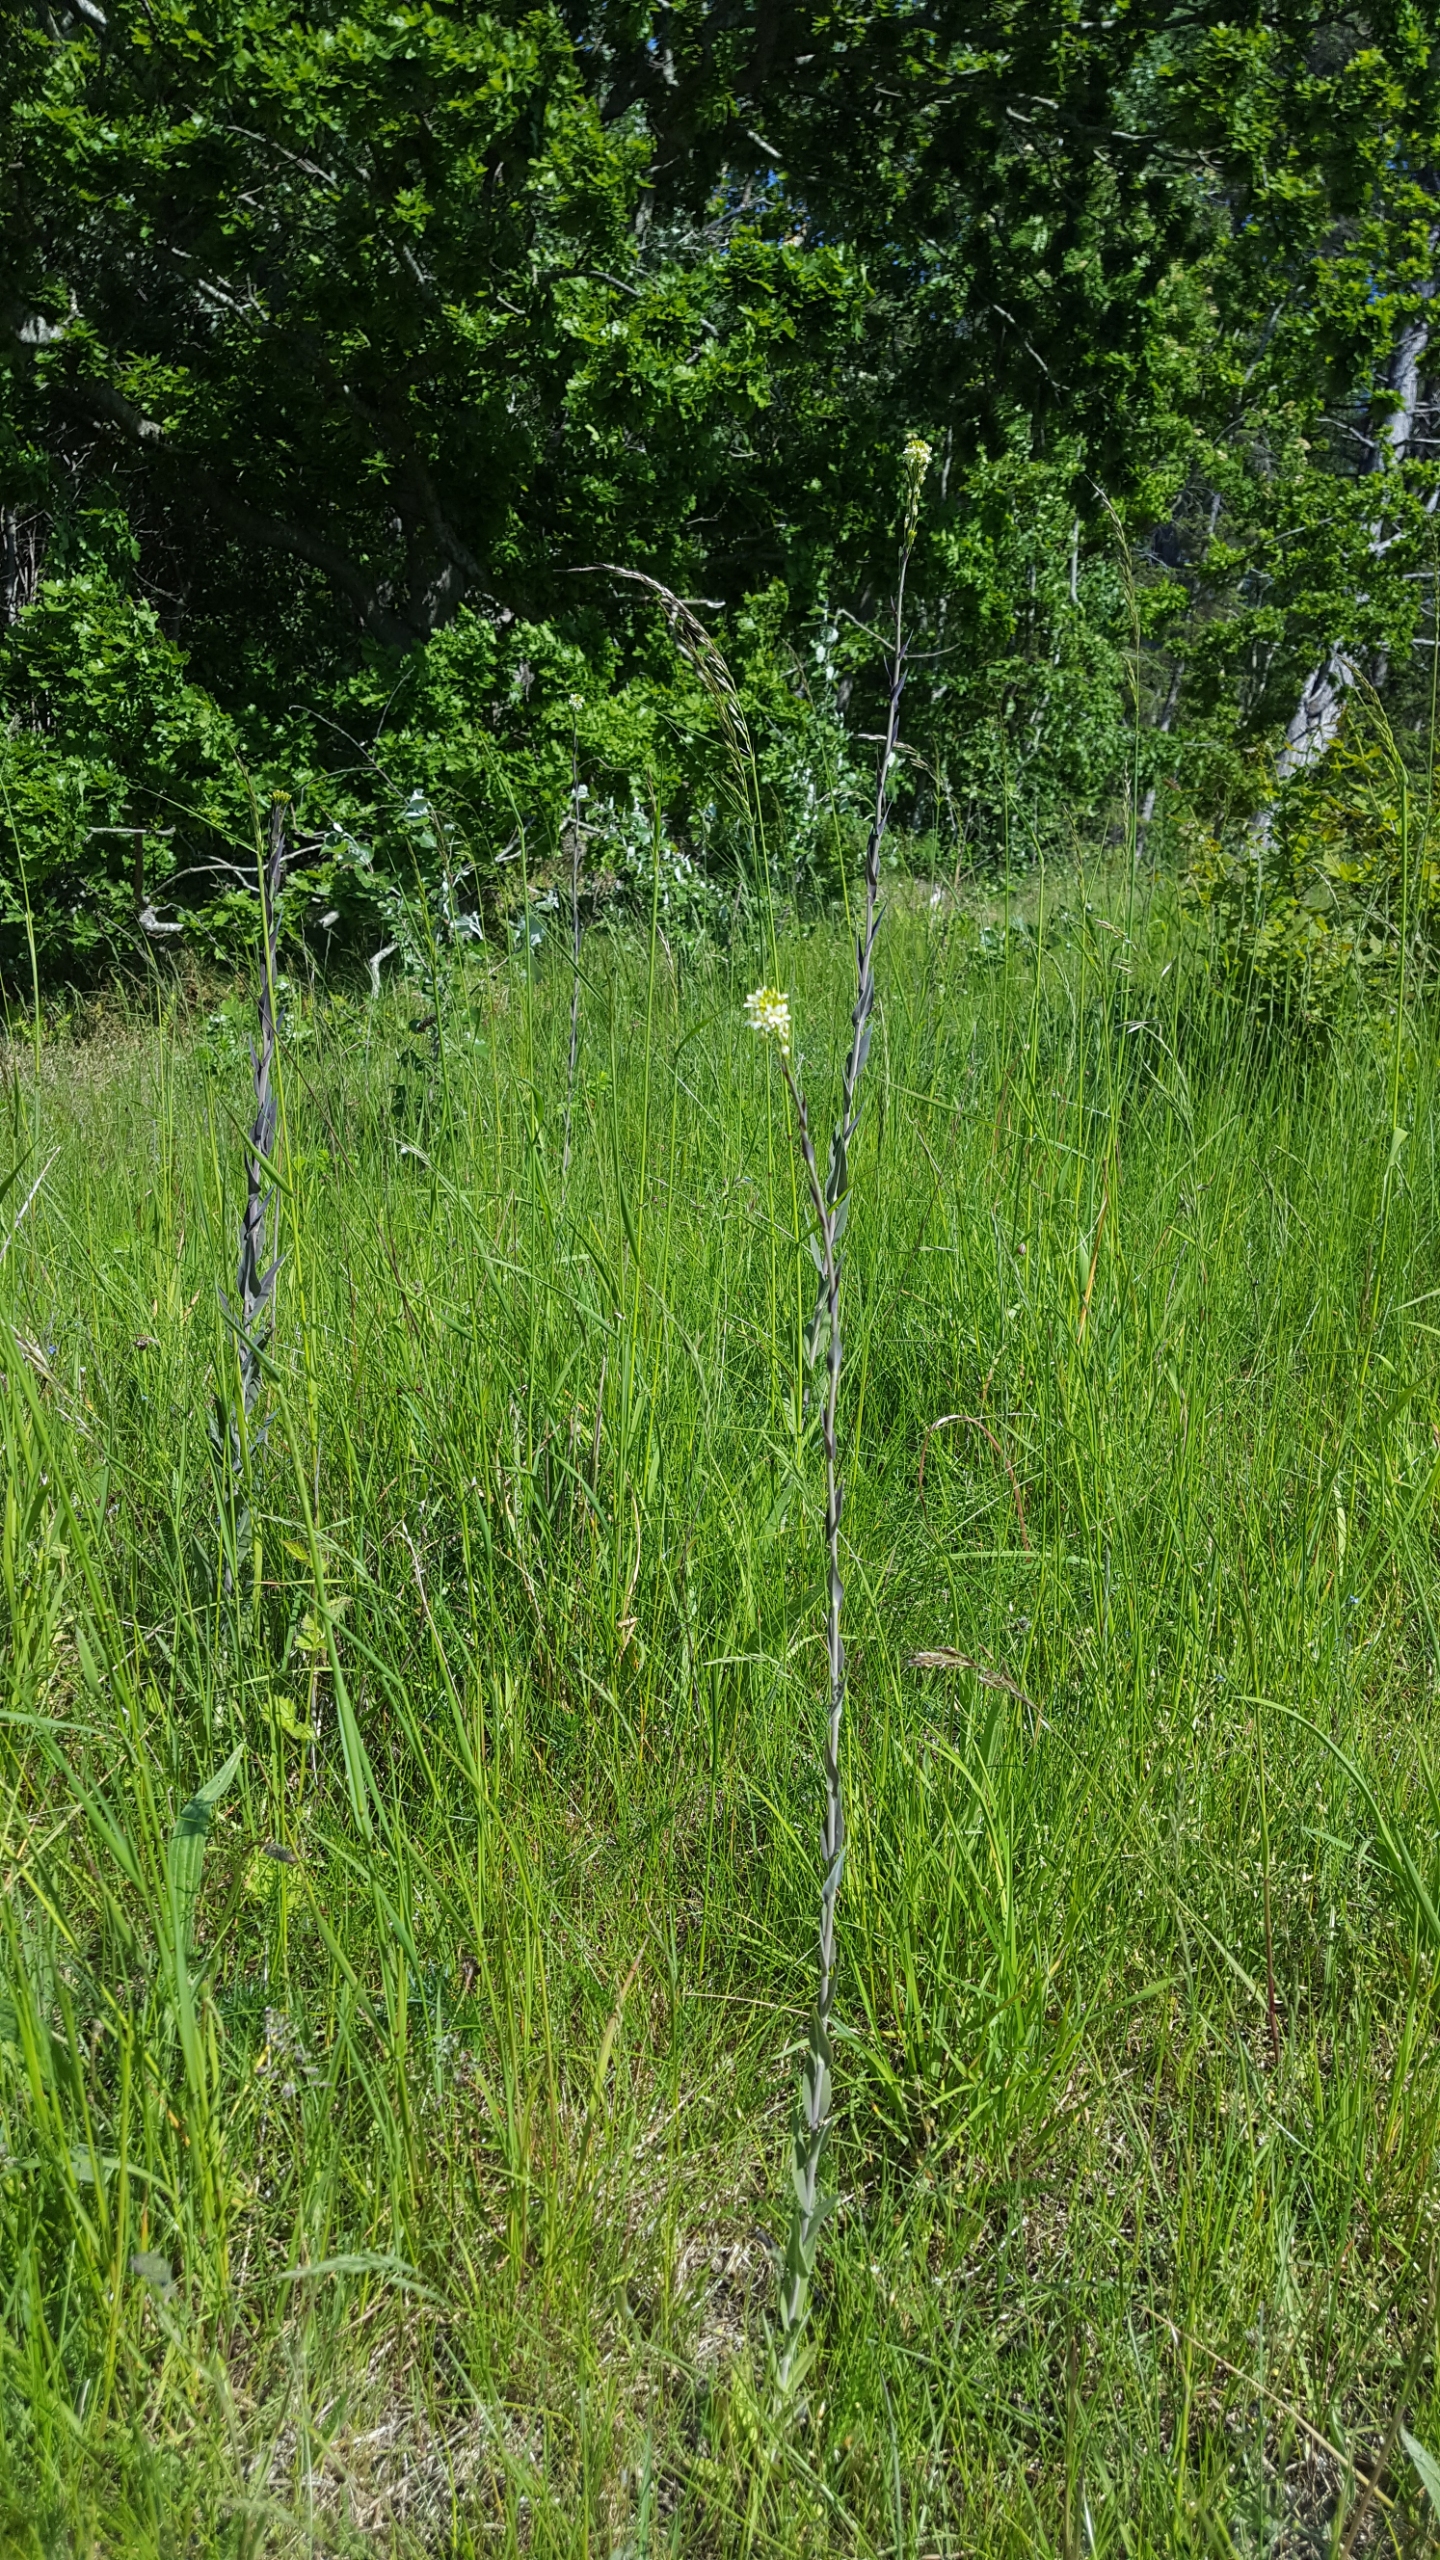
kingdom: Plantae
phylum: Tracheophyta
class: Magnoliopsida
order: Brassicales
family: Brassicaceae
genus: Turritis
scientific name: Turritis glabra
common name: Tårnurt
